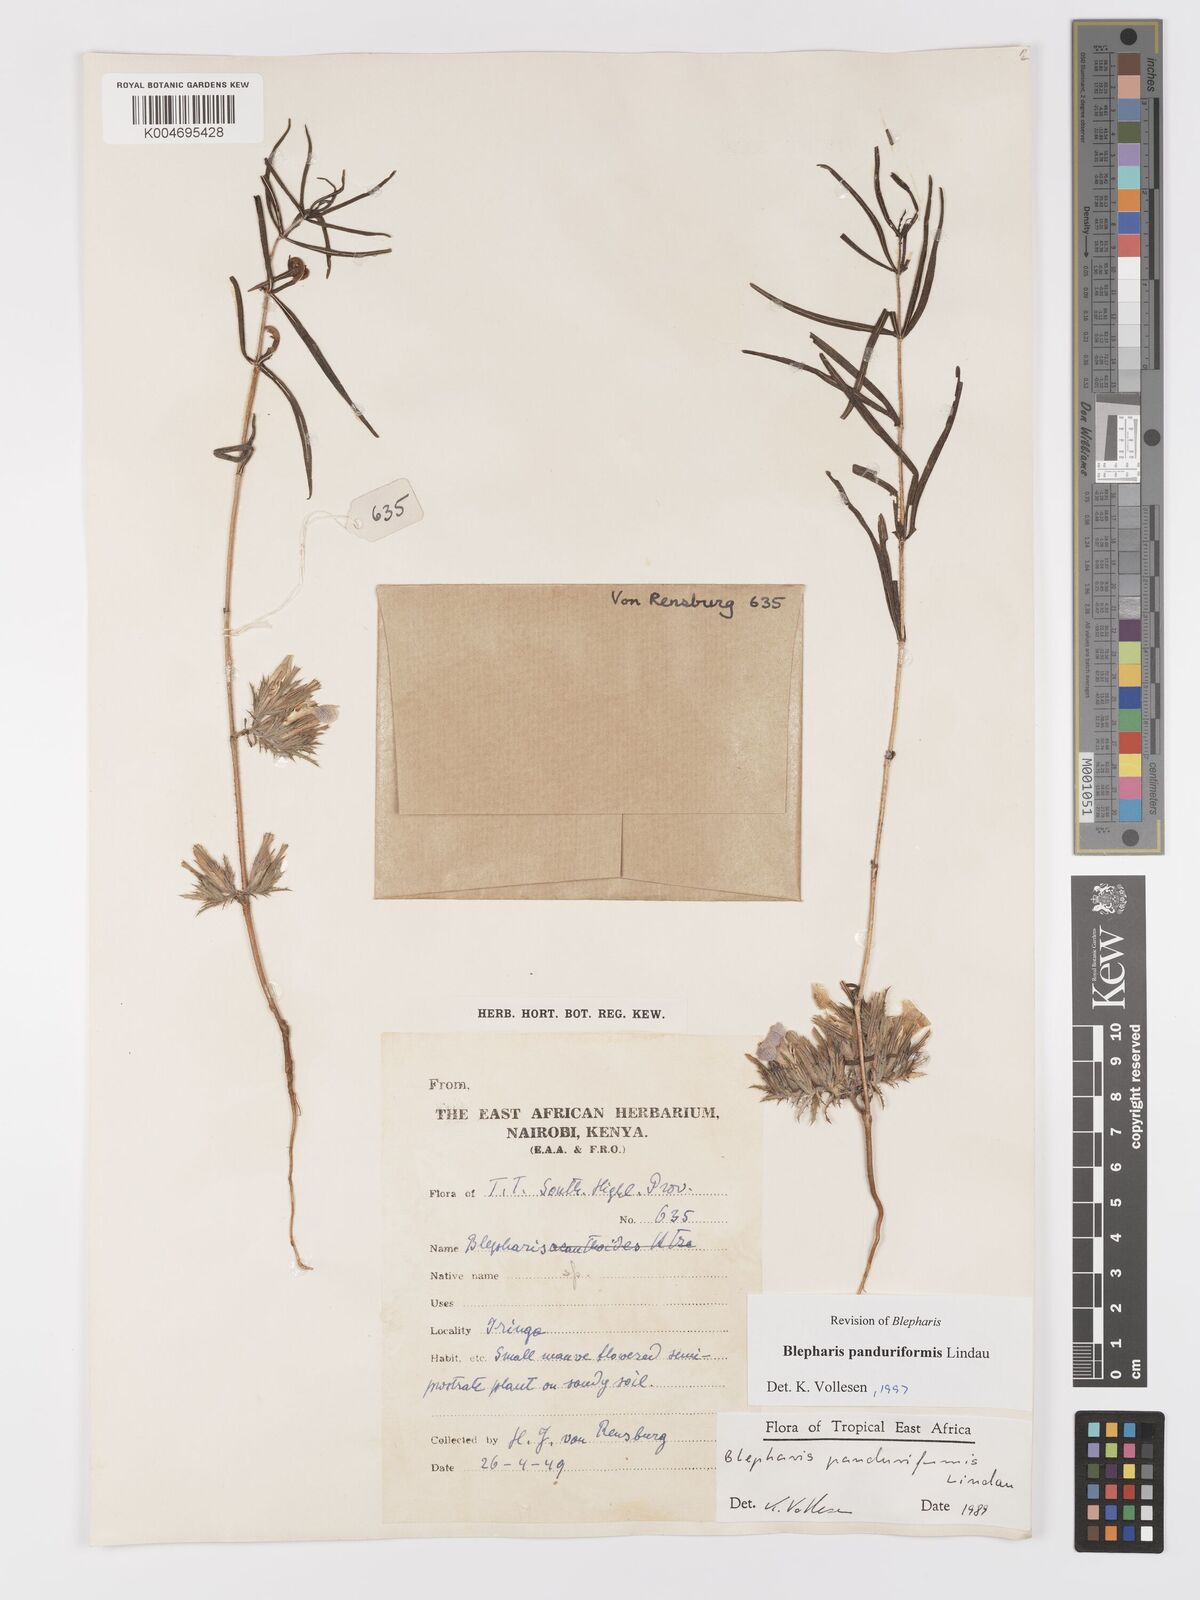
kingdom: Plantae
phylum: Tracheophyta
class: Magnoliopsida
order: Lamiales
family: Acanthaceae
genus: Blepharis
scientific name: Blepharis panduriformis
